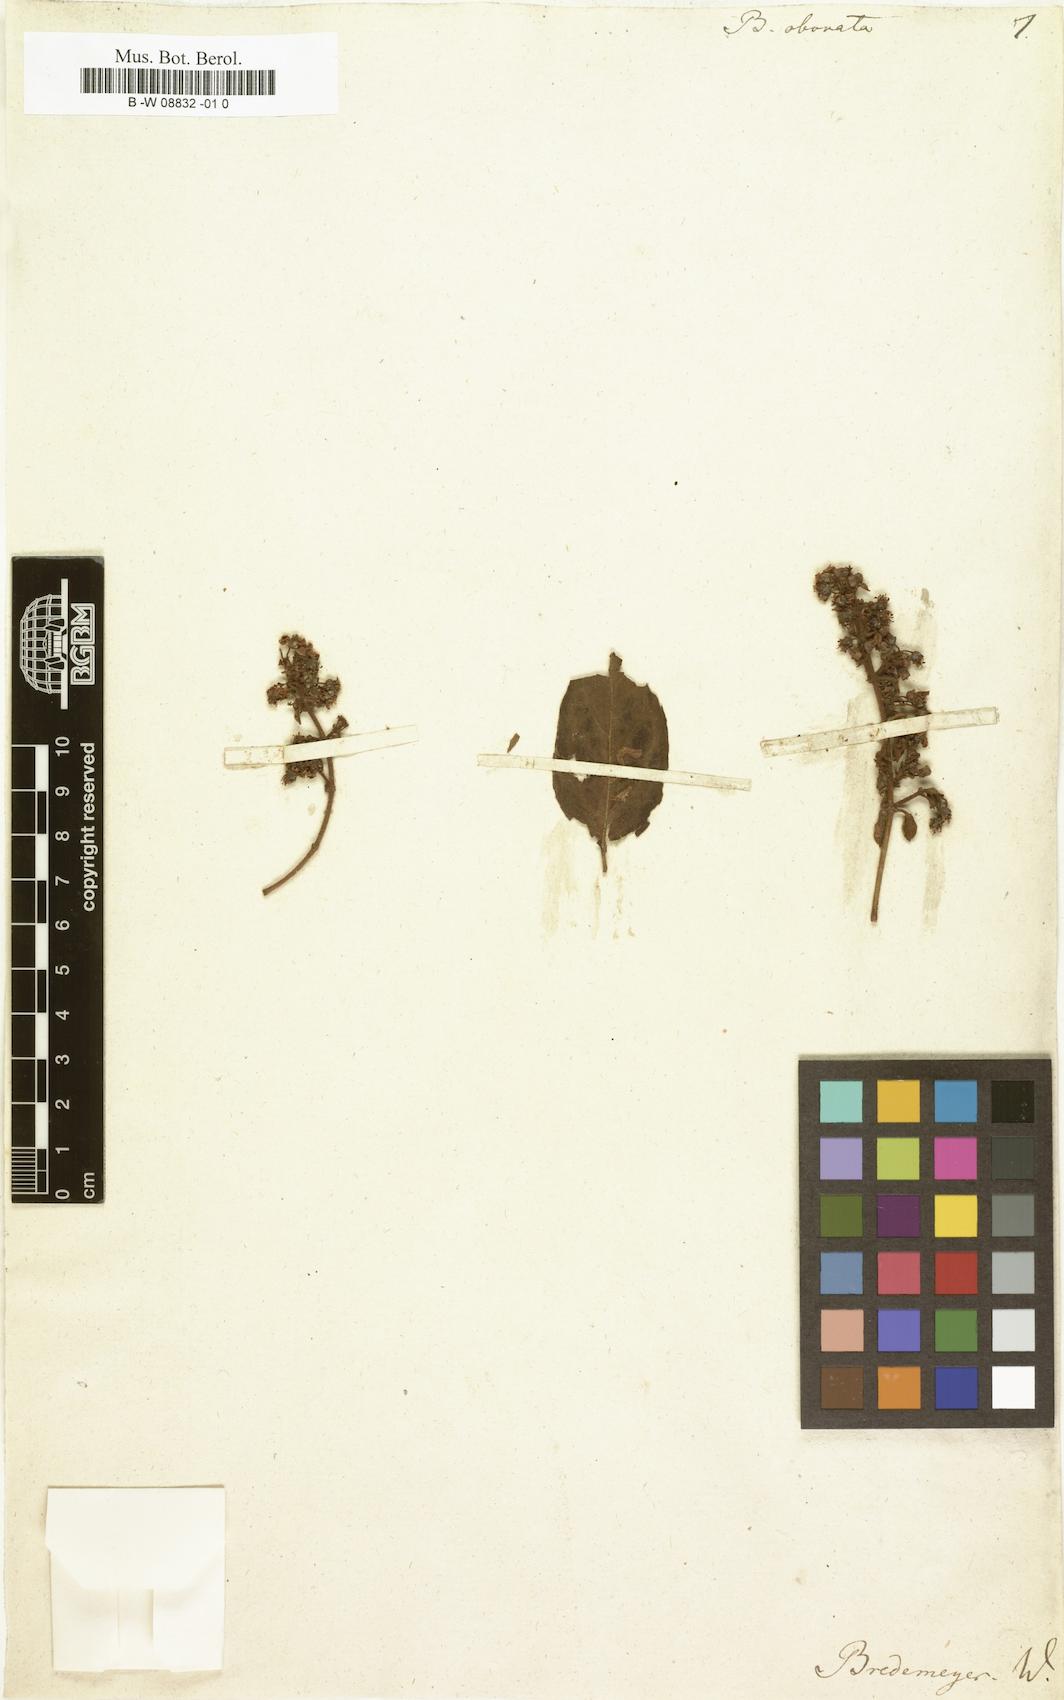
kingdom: Plantae
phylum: Tracheophyta
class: Magnoliopsida
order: Malpighiales
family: Malpighiaceae
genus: Heteropterys
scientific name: Heteropterys obovata
